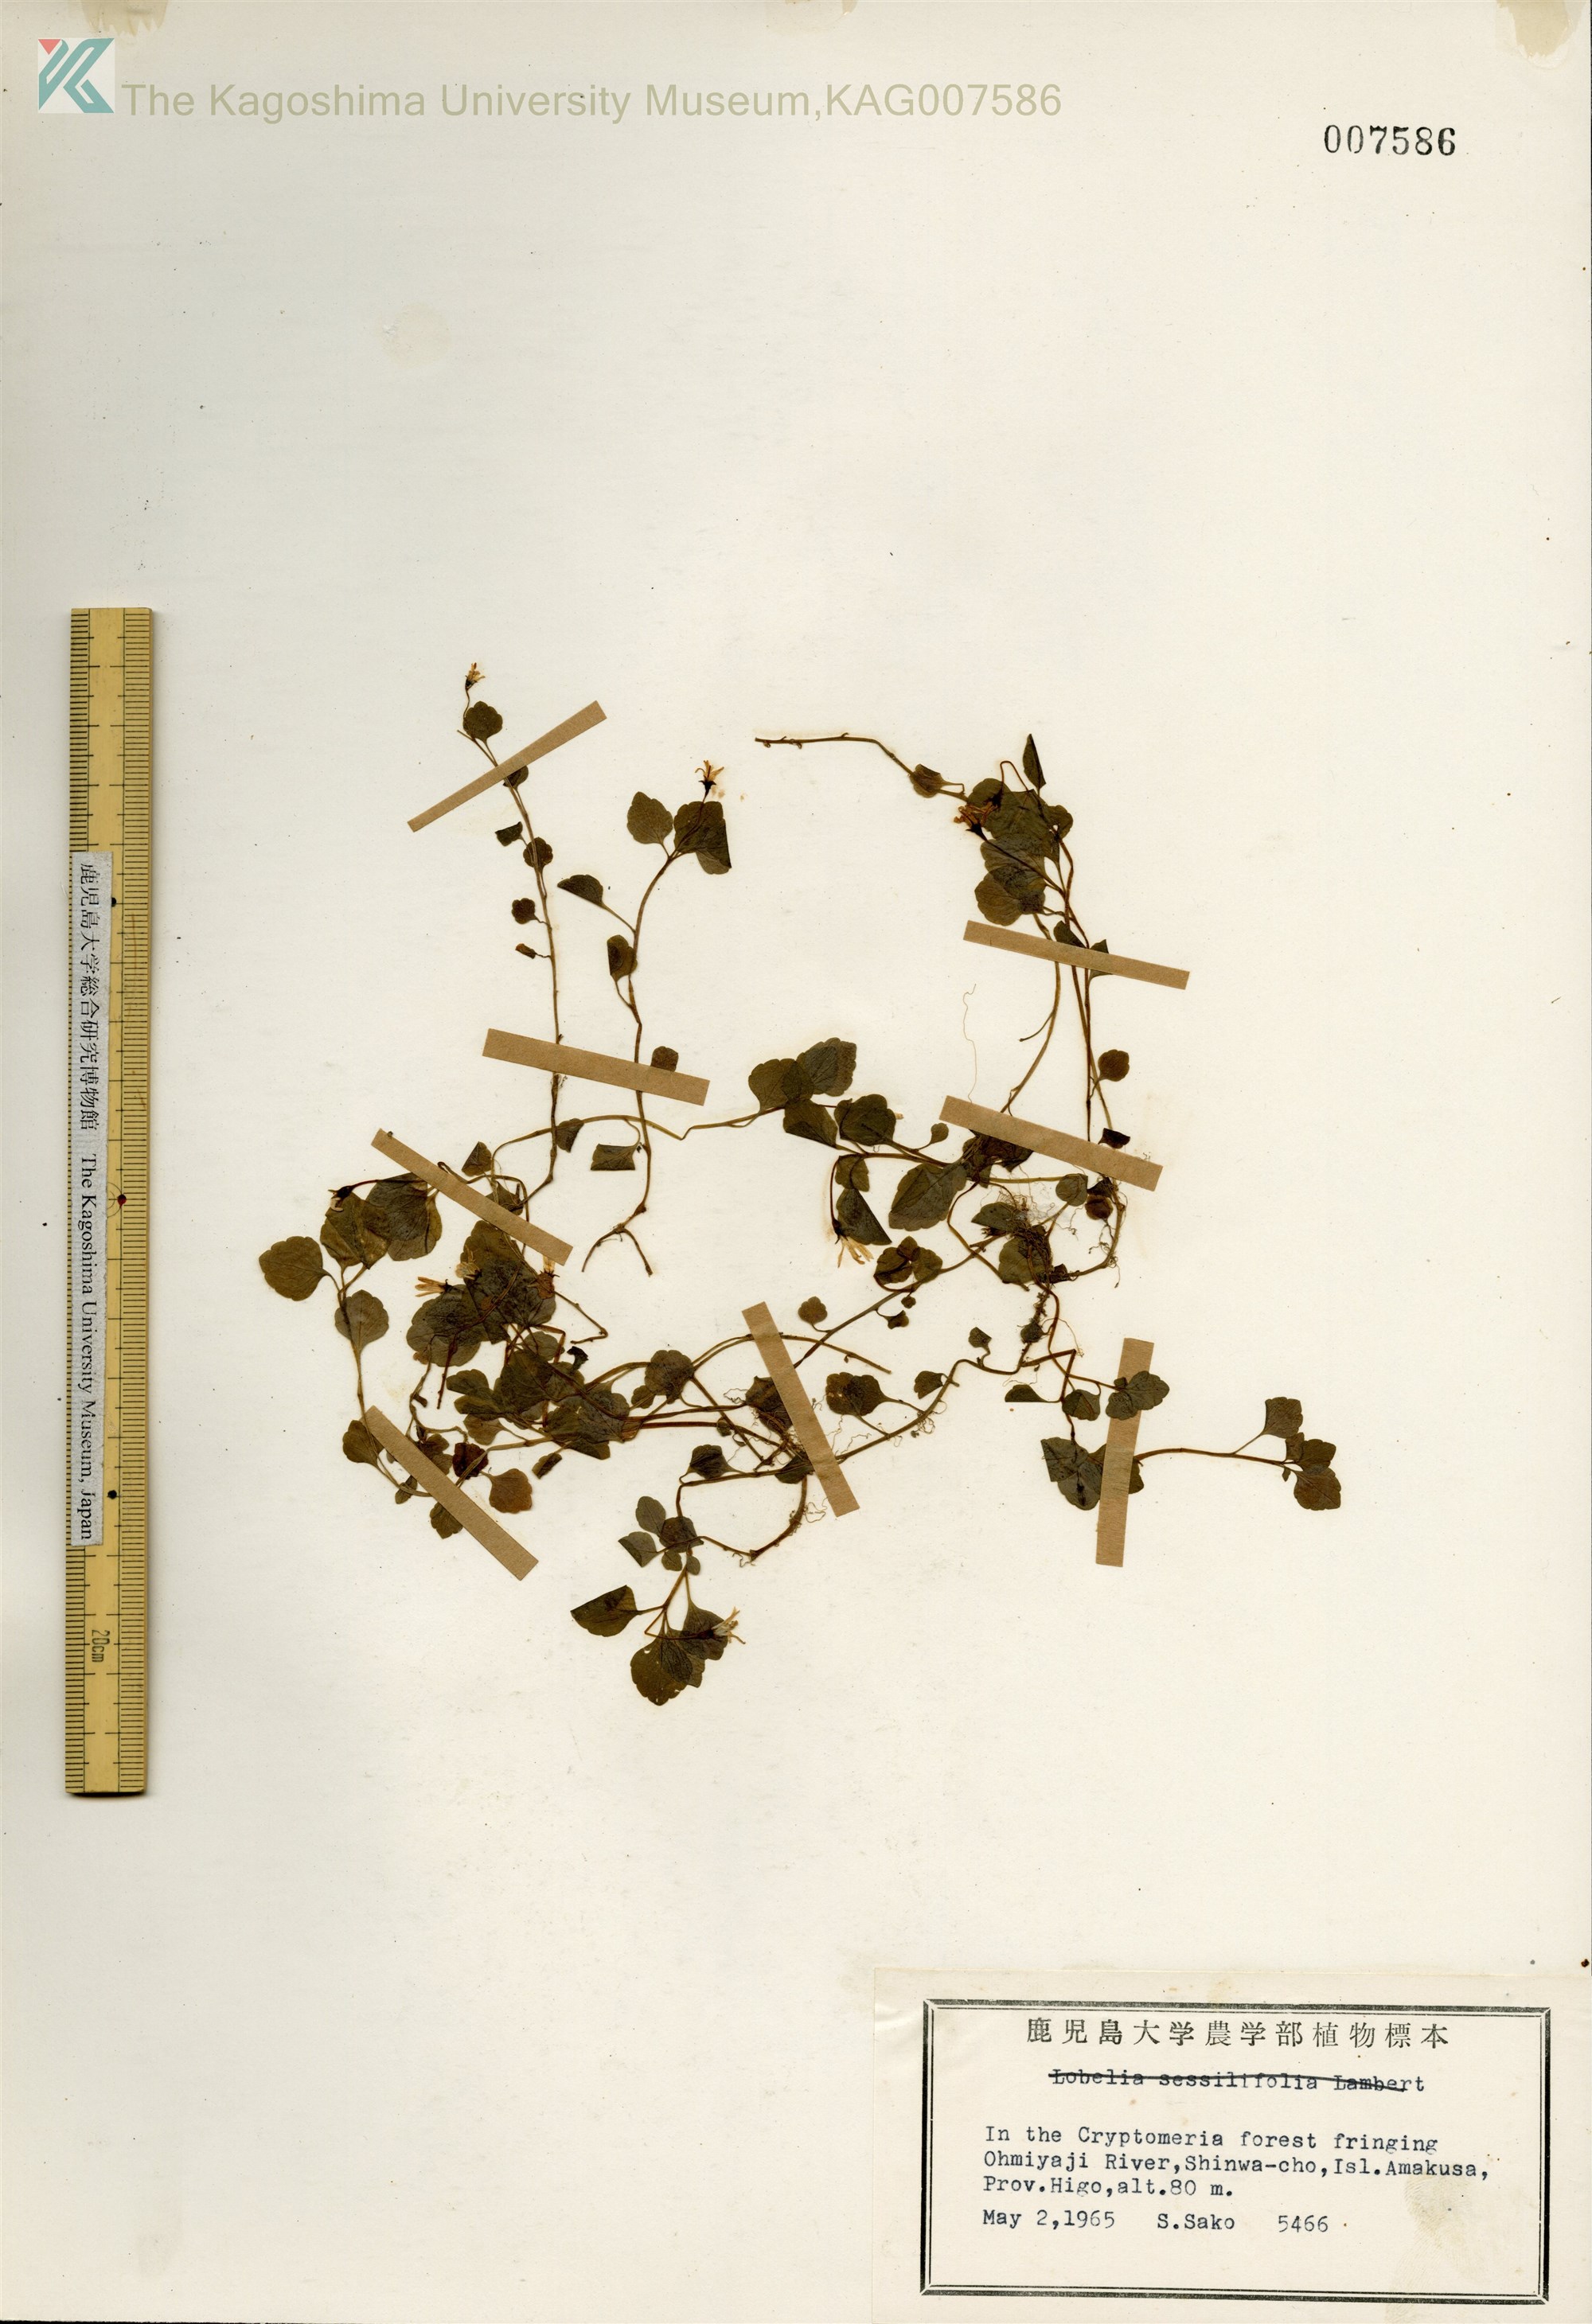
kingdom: Plantae
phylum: Tracheophyta
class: Magnoliopsida
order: Asterales
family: Campanulaceae
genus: Peracarpa
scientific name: Peracarpa carnosa
